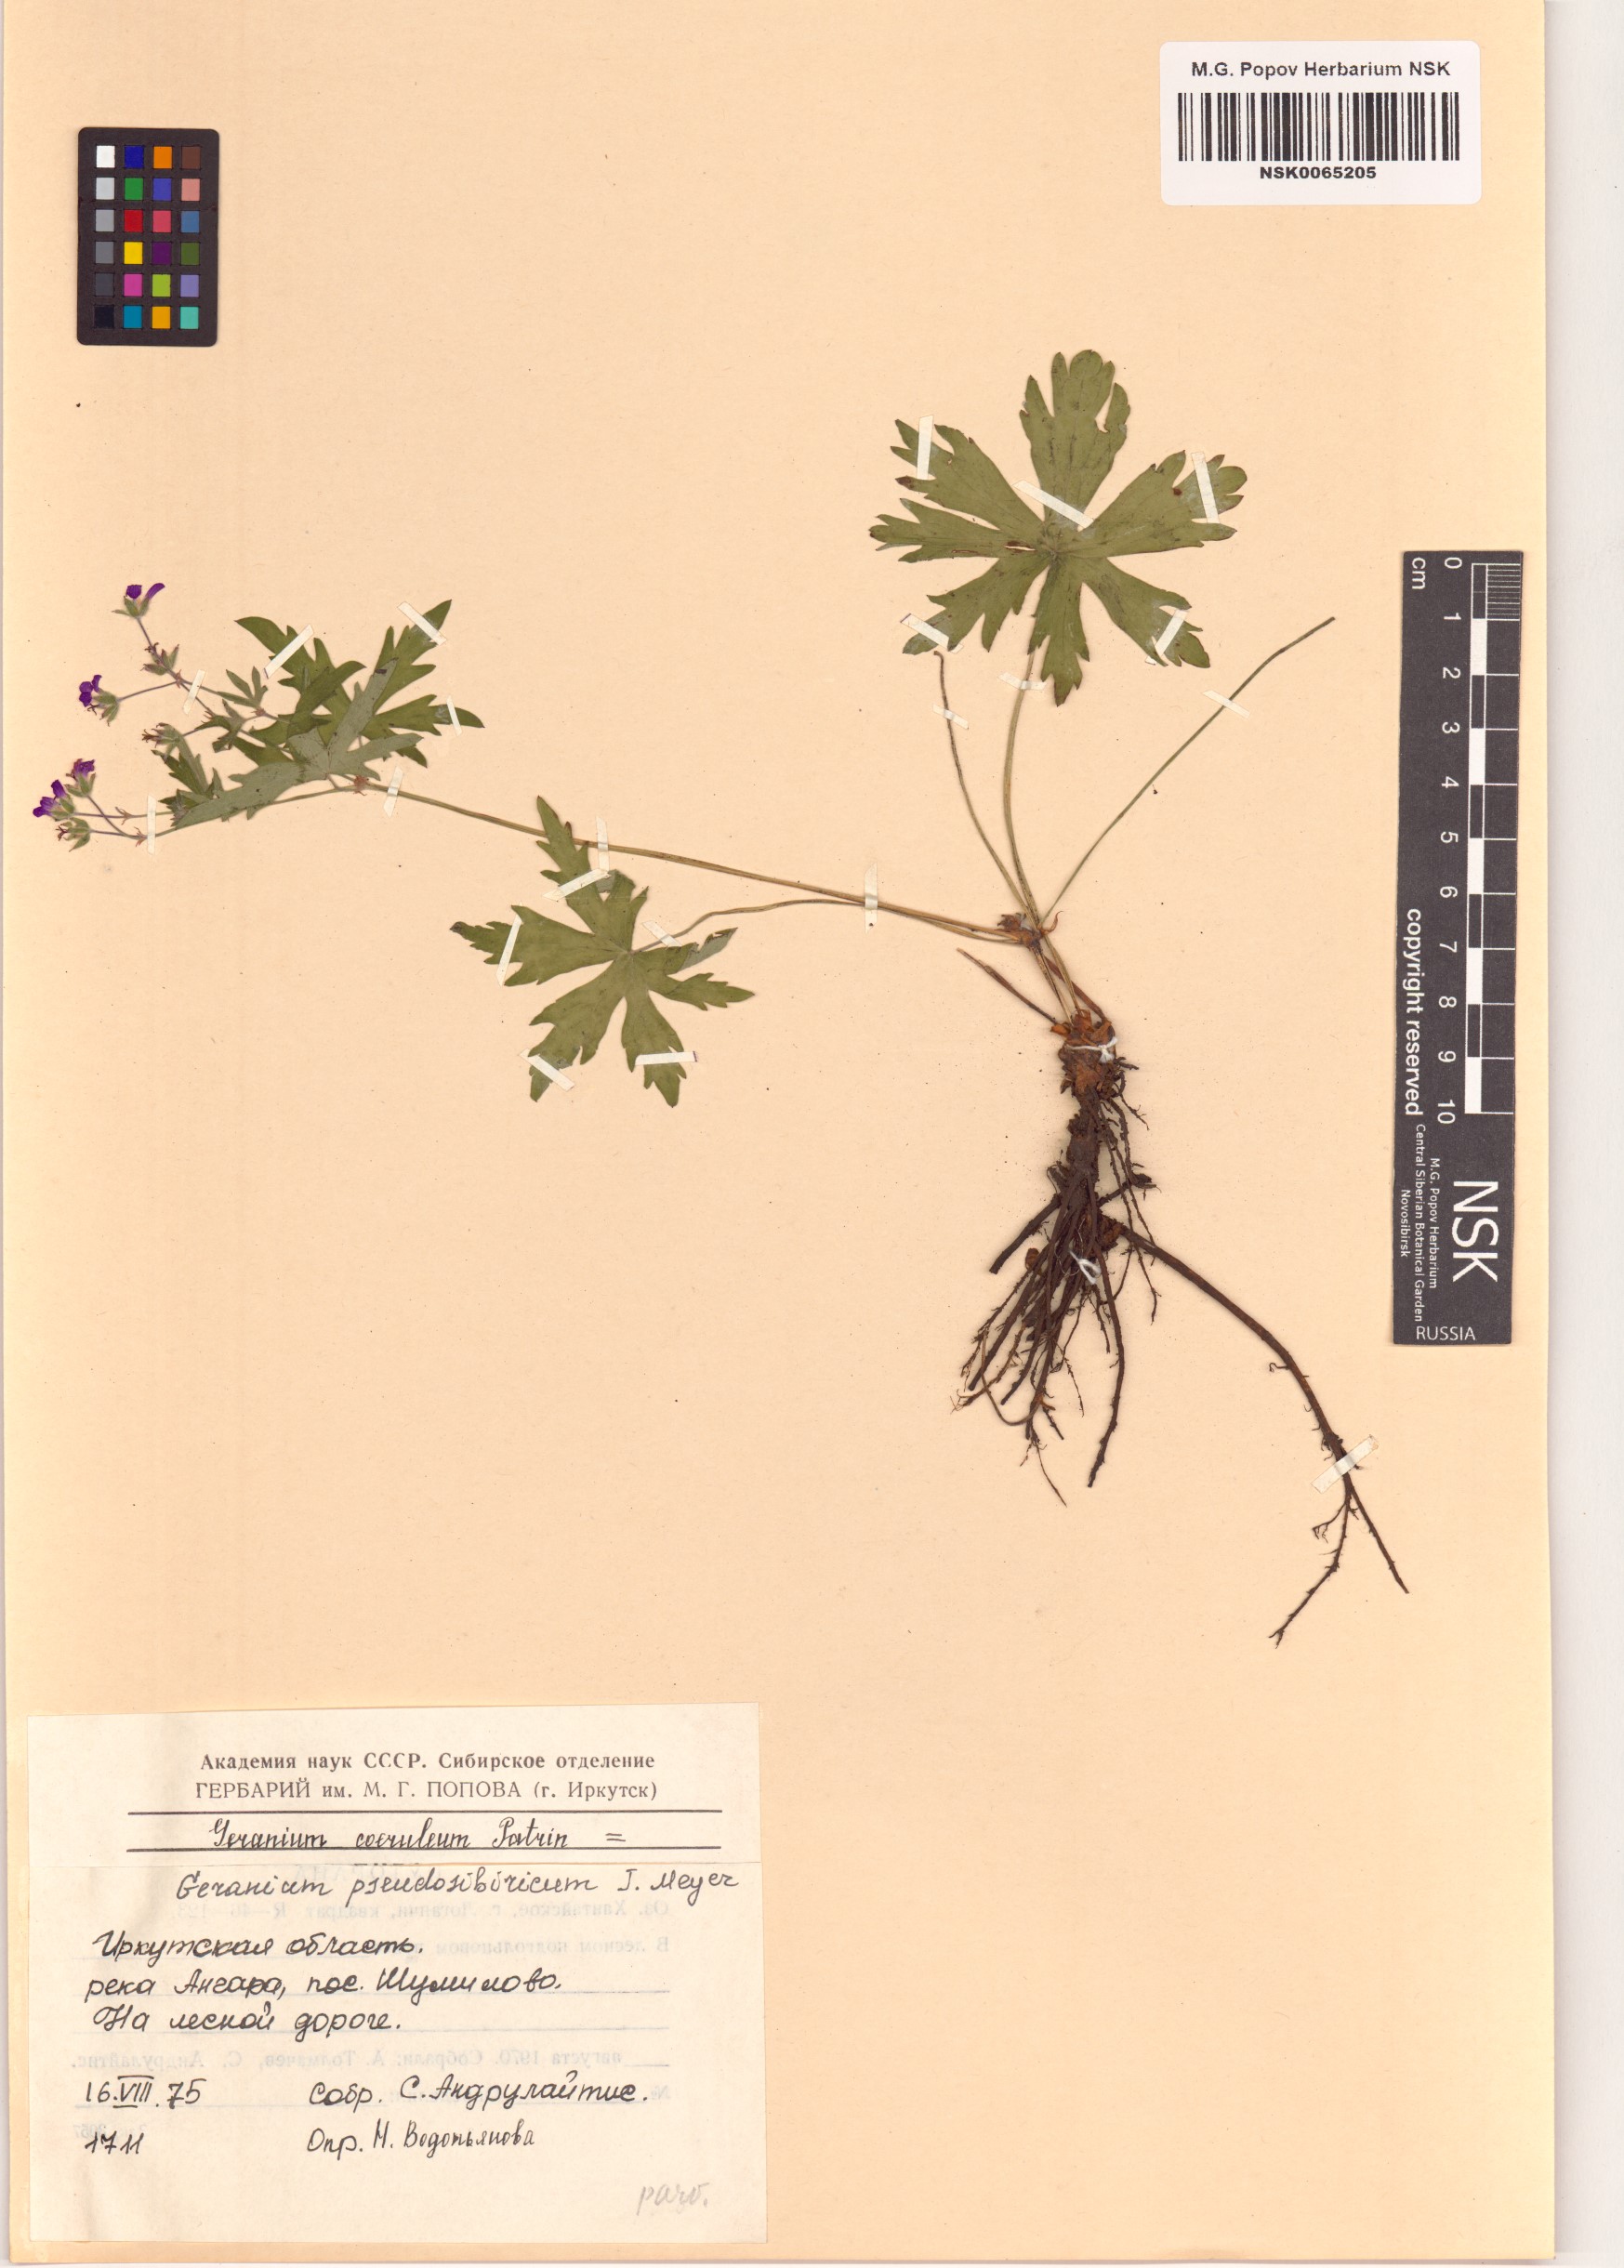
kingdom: Plantae
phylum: Tracheophyta
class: Magnoliopsida
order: Geraniales
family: Geraniaceae
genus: Geranium
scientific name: Geranium pseudosibiricum
